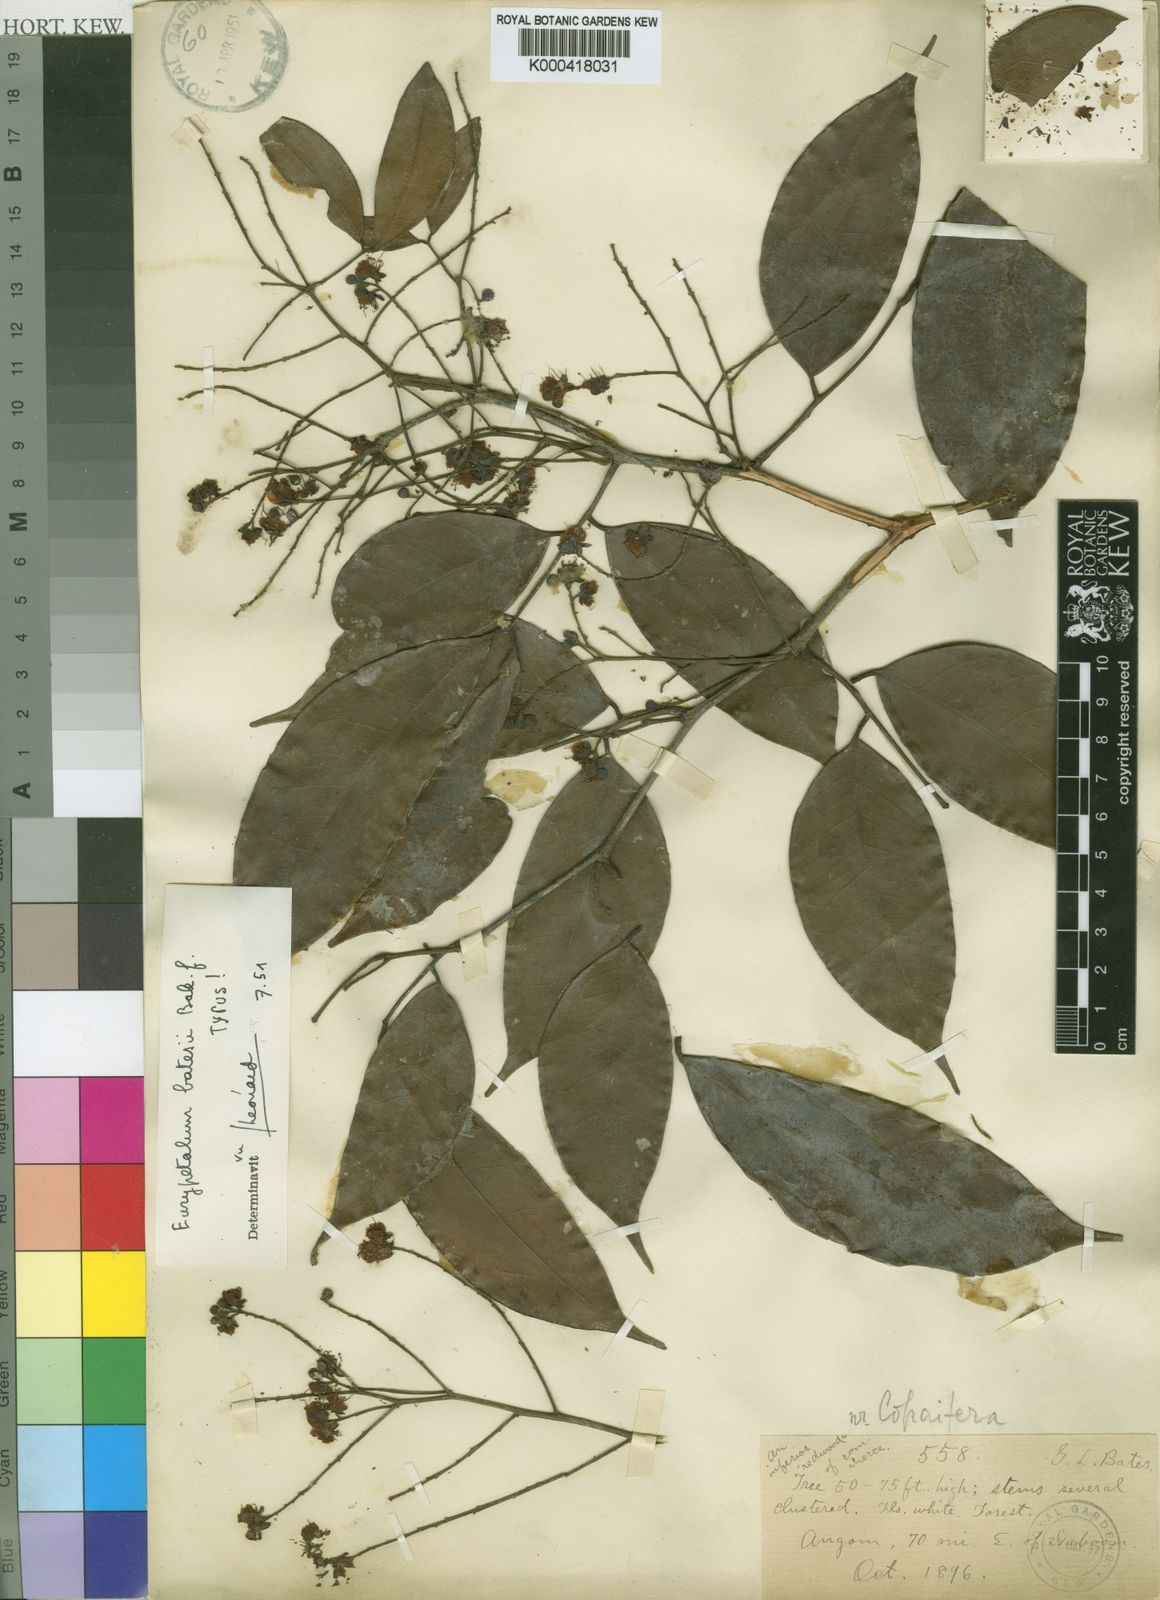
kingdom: Plantae
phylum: Tracheophyta
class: Magnoliopsida
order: Fabales
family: Fabaceae
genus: Eurypetalum
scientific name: Eurypetalum tessmannii
